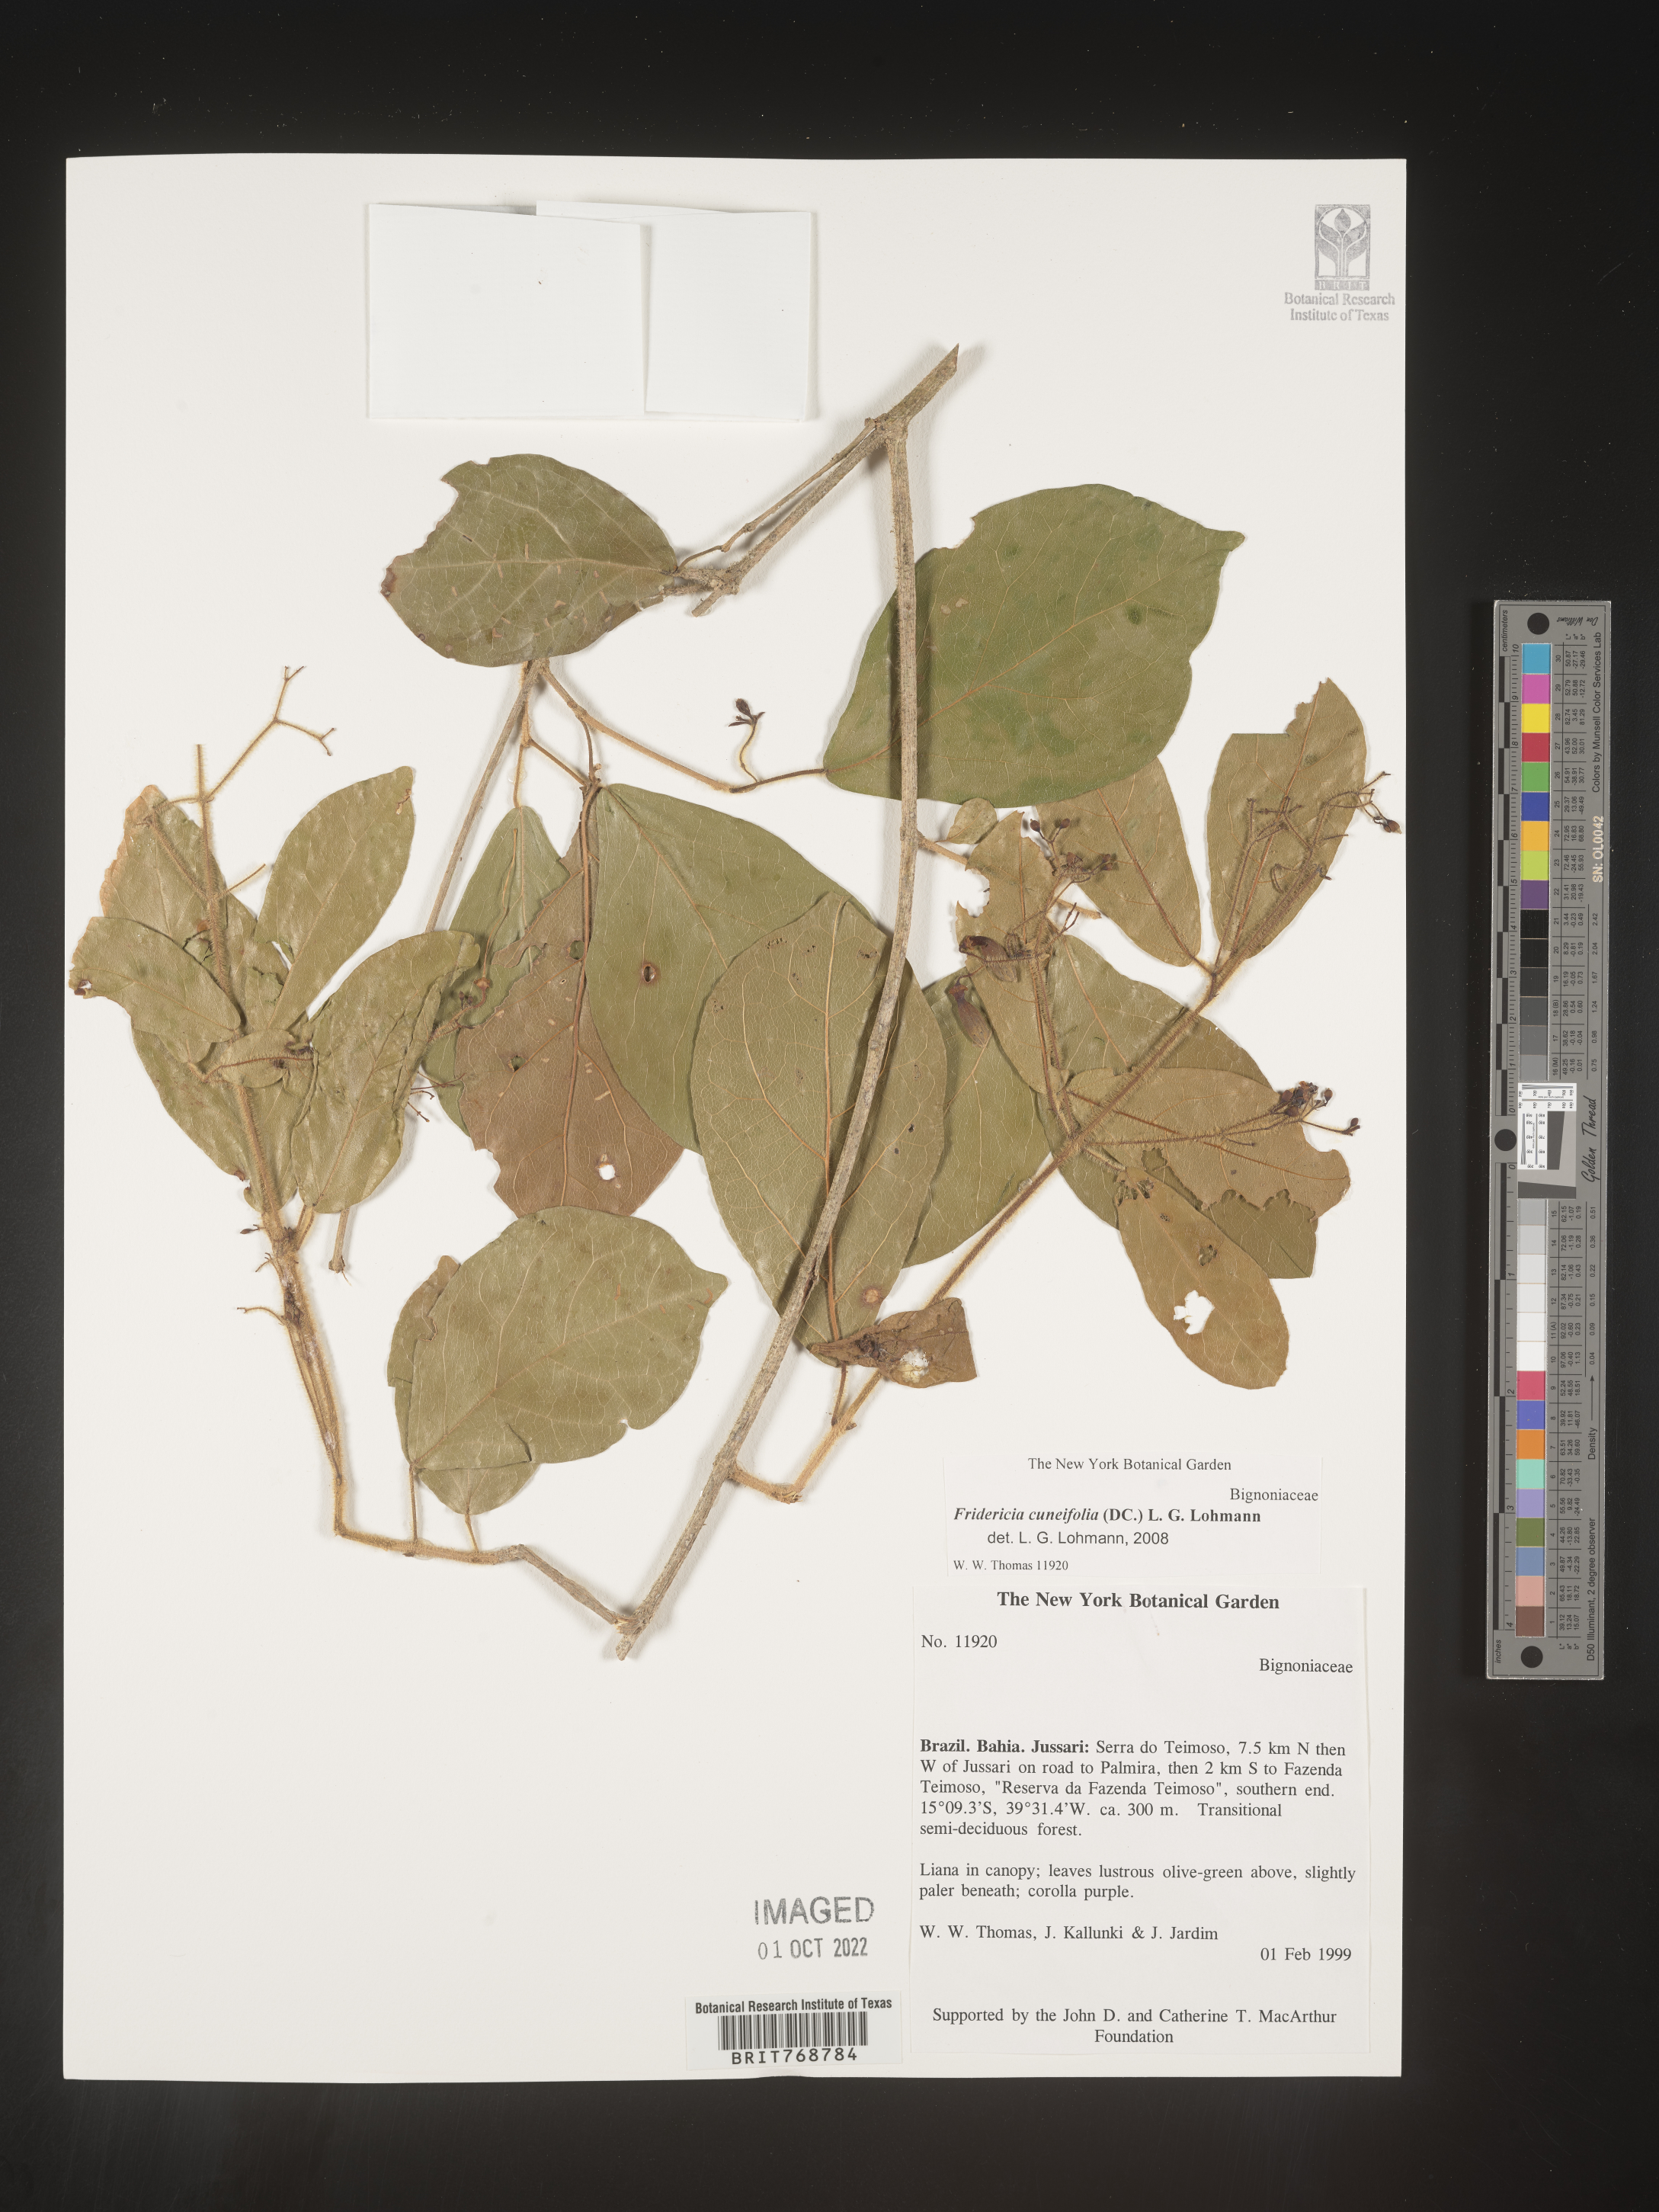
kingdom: Plantae
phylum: Tracheophyta
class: Magnoliopsida
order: Lamiales
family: Bignoniaceae
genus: Fridericia
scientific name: Fridericia
